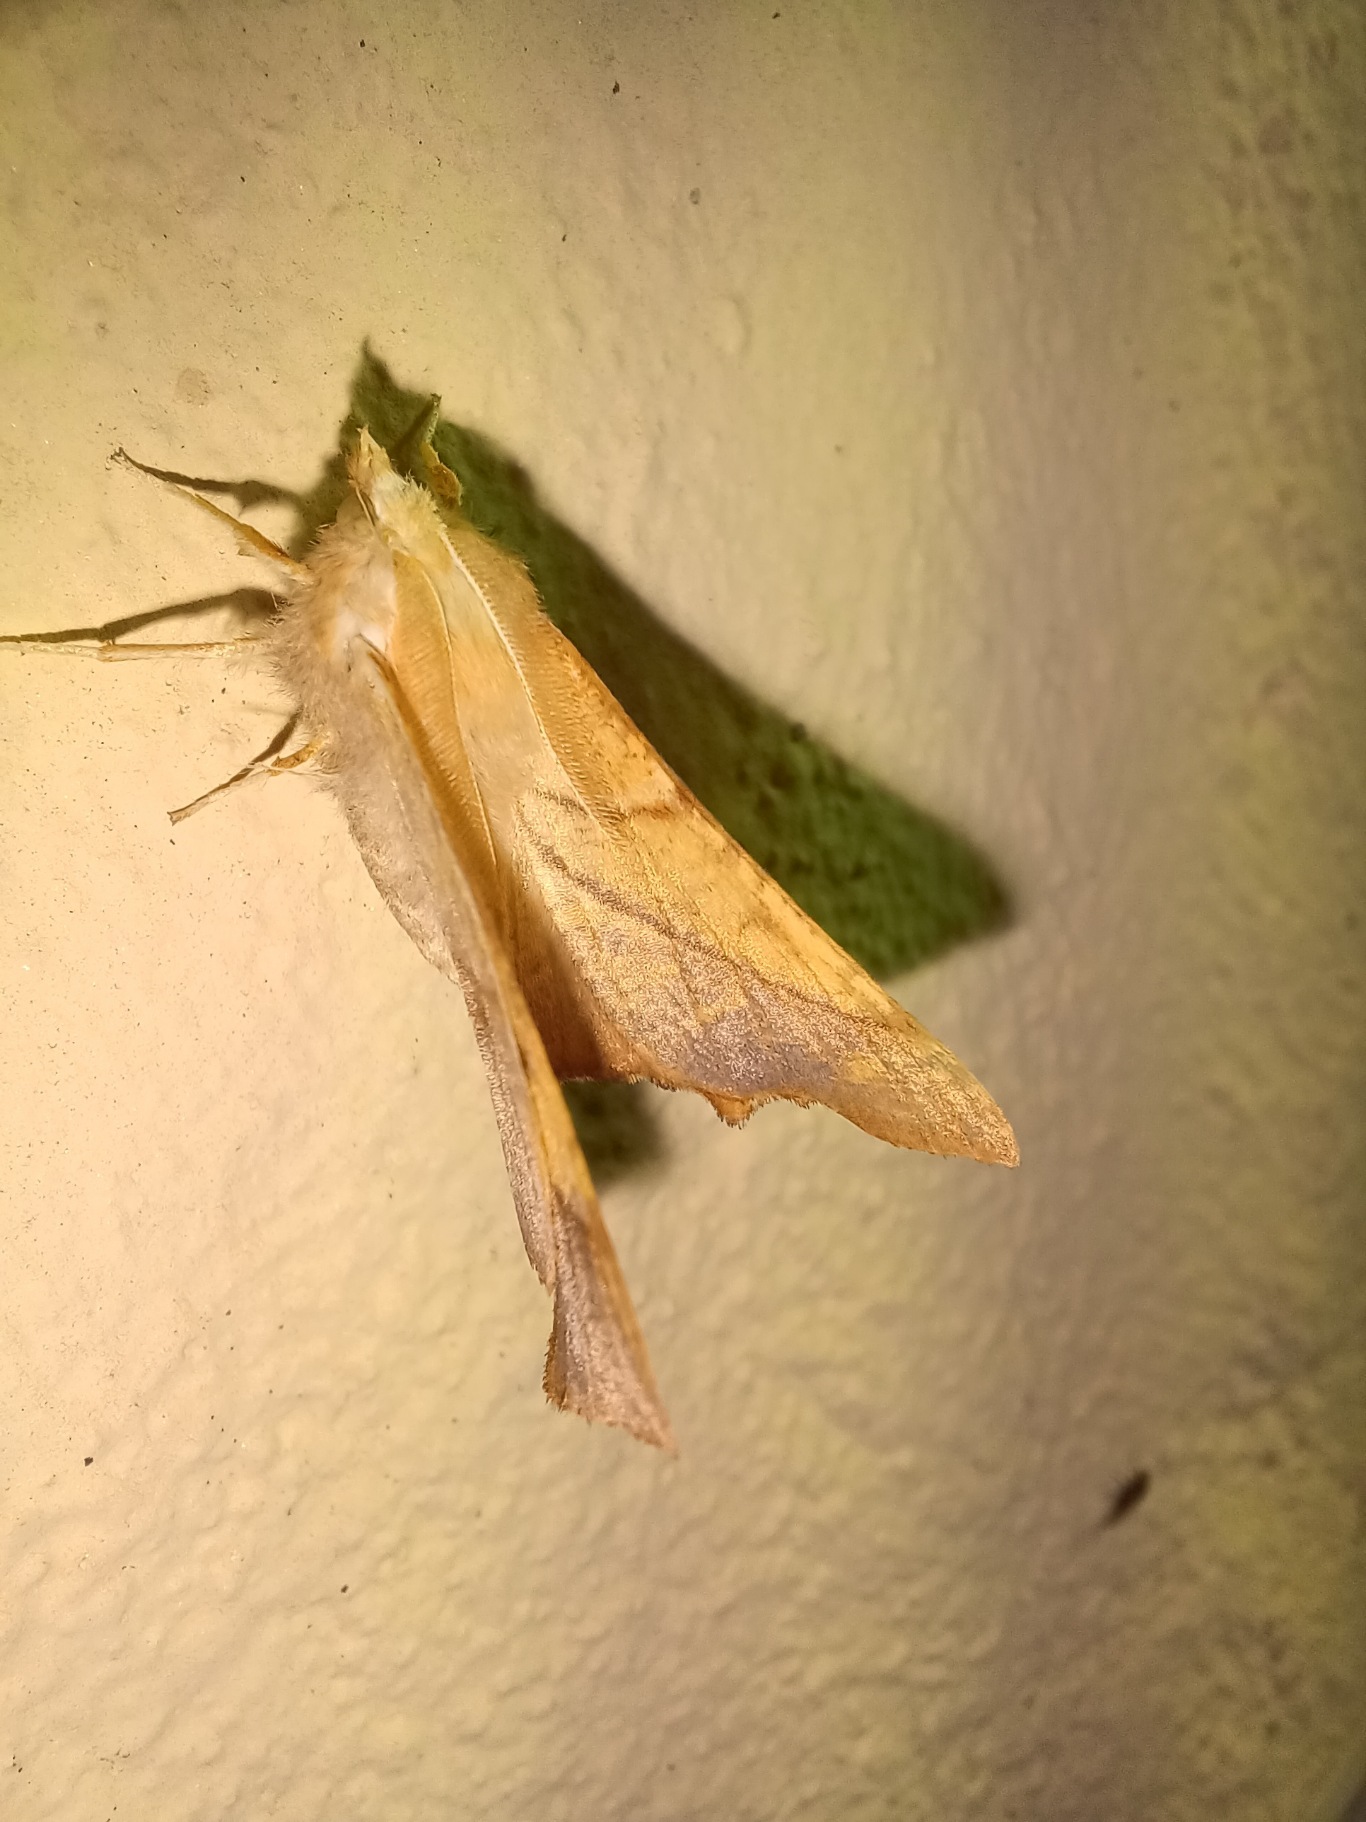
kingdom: Animalia
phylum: Arthropoda
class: Insecta
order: Lepidoptera
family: Geometridae
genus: Ennomos
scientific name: Ennomos fuscantaria
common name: Asketandmåler
